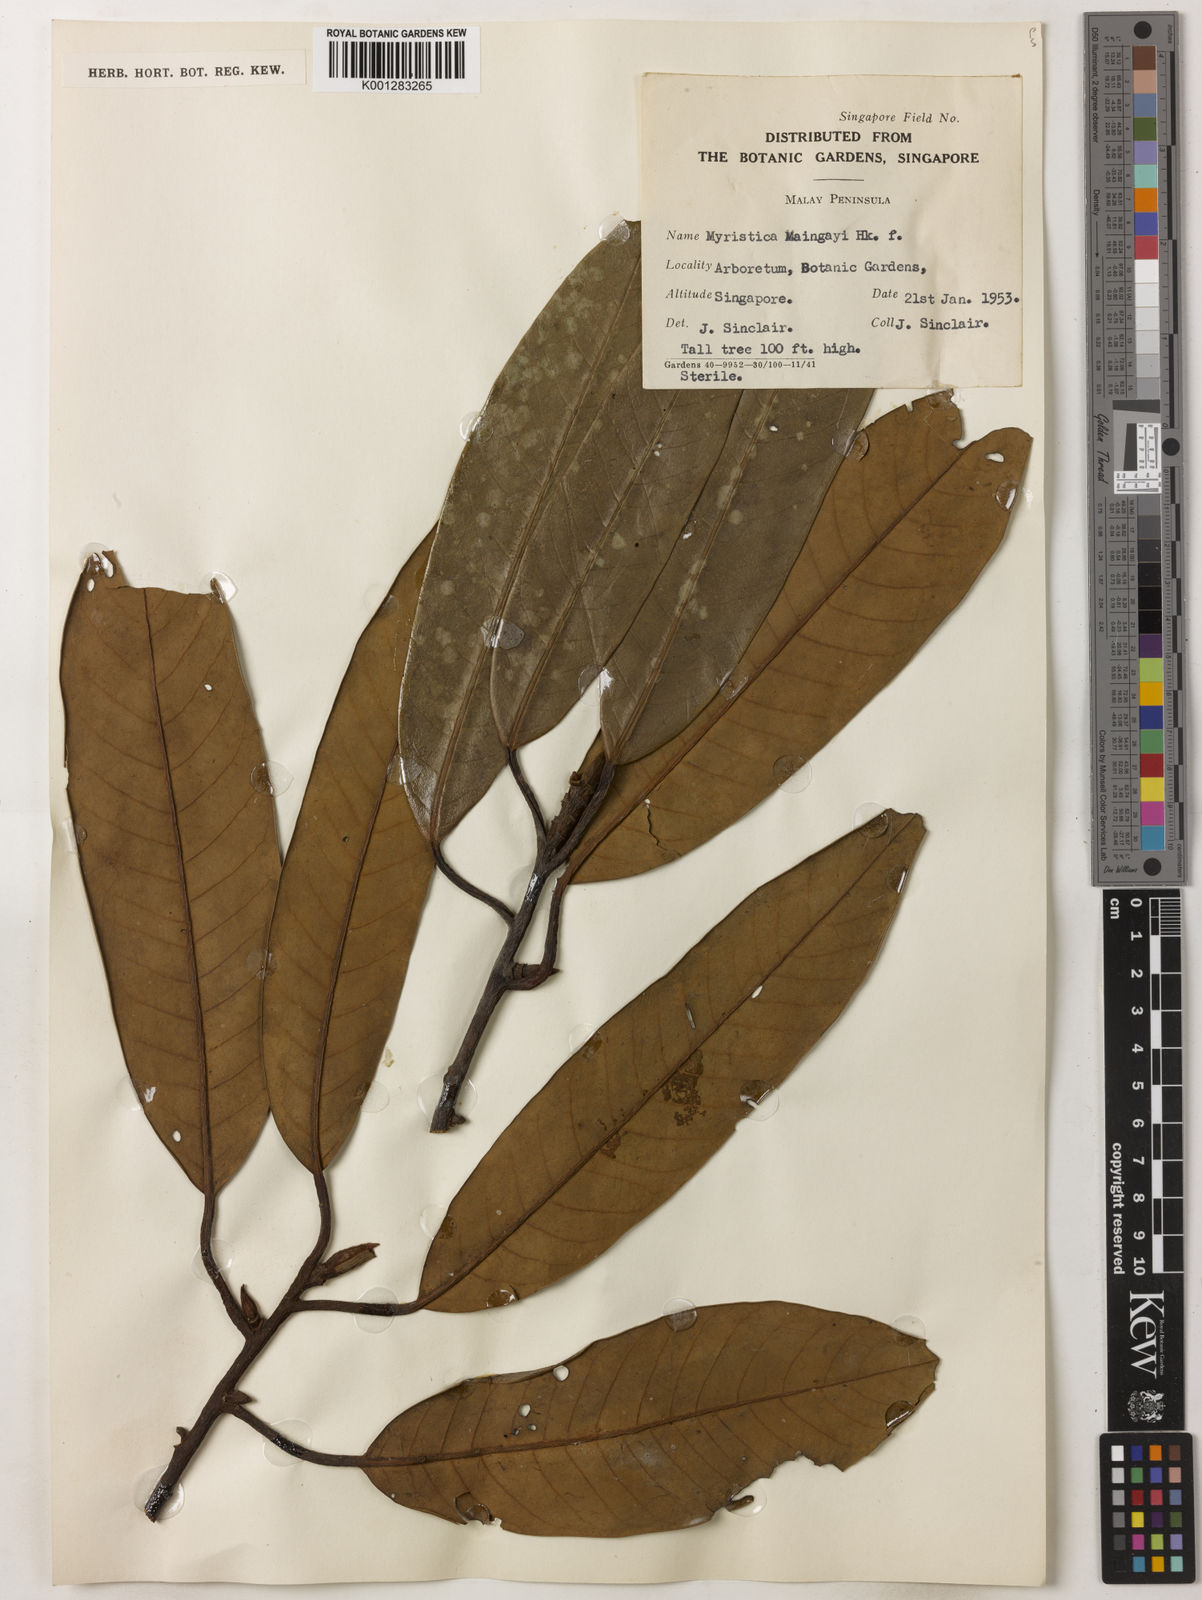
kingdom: Plantae
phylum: Tracheophyta
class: Magnoliopsida
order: Magnoliales
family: Myristicaceae
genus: Myristica
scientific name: Myristica maingayi
